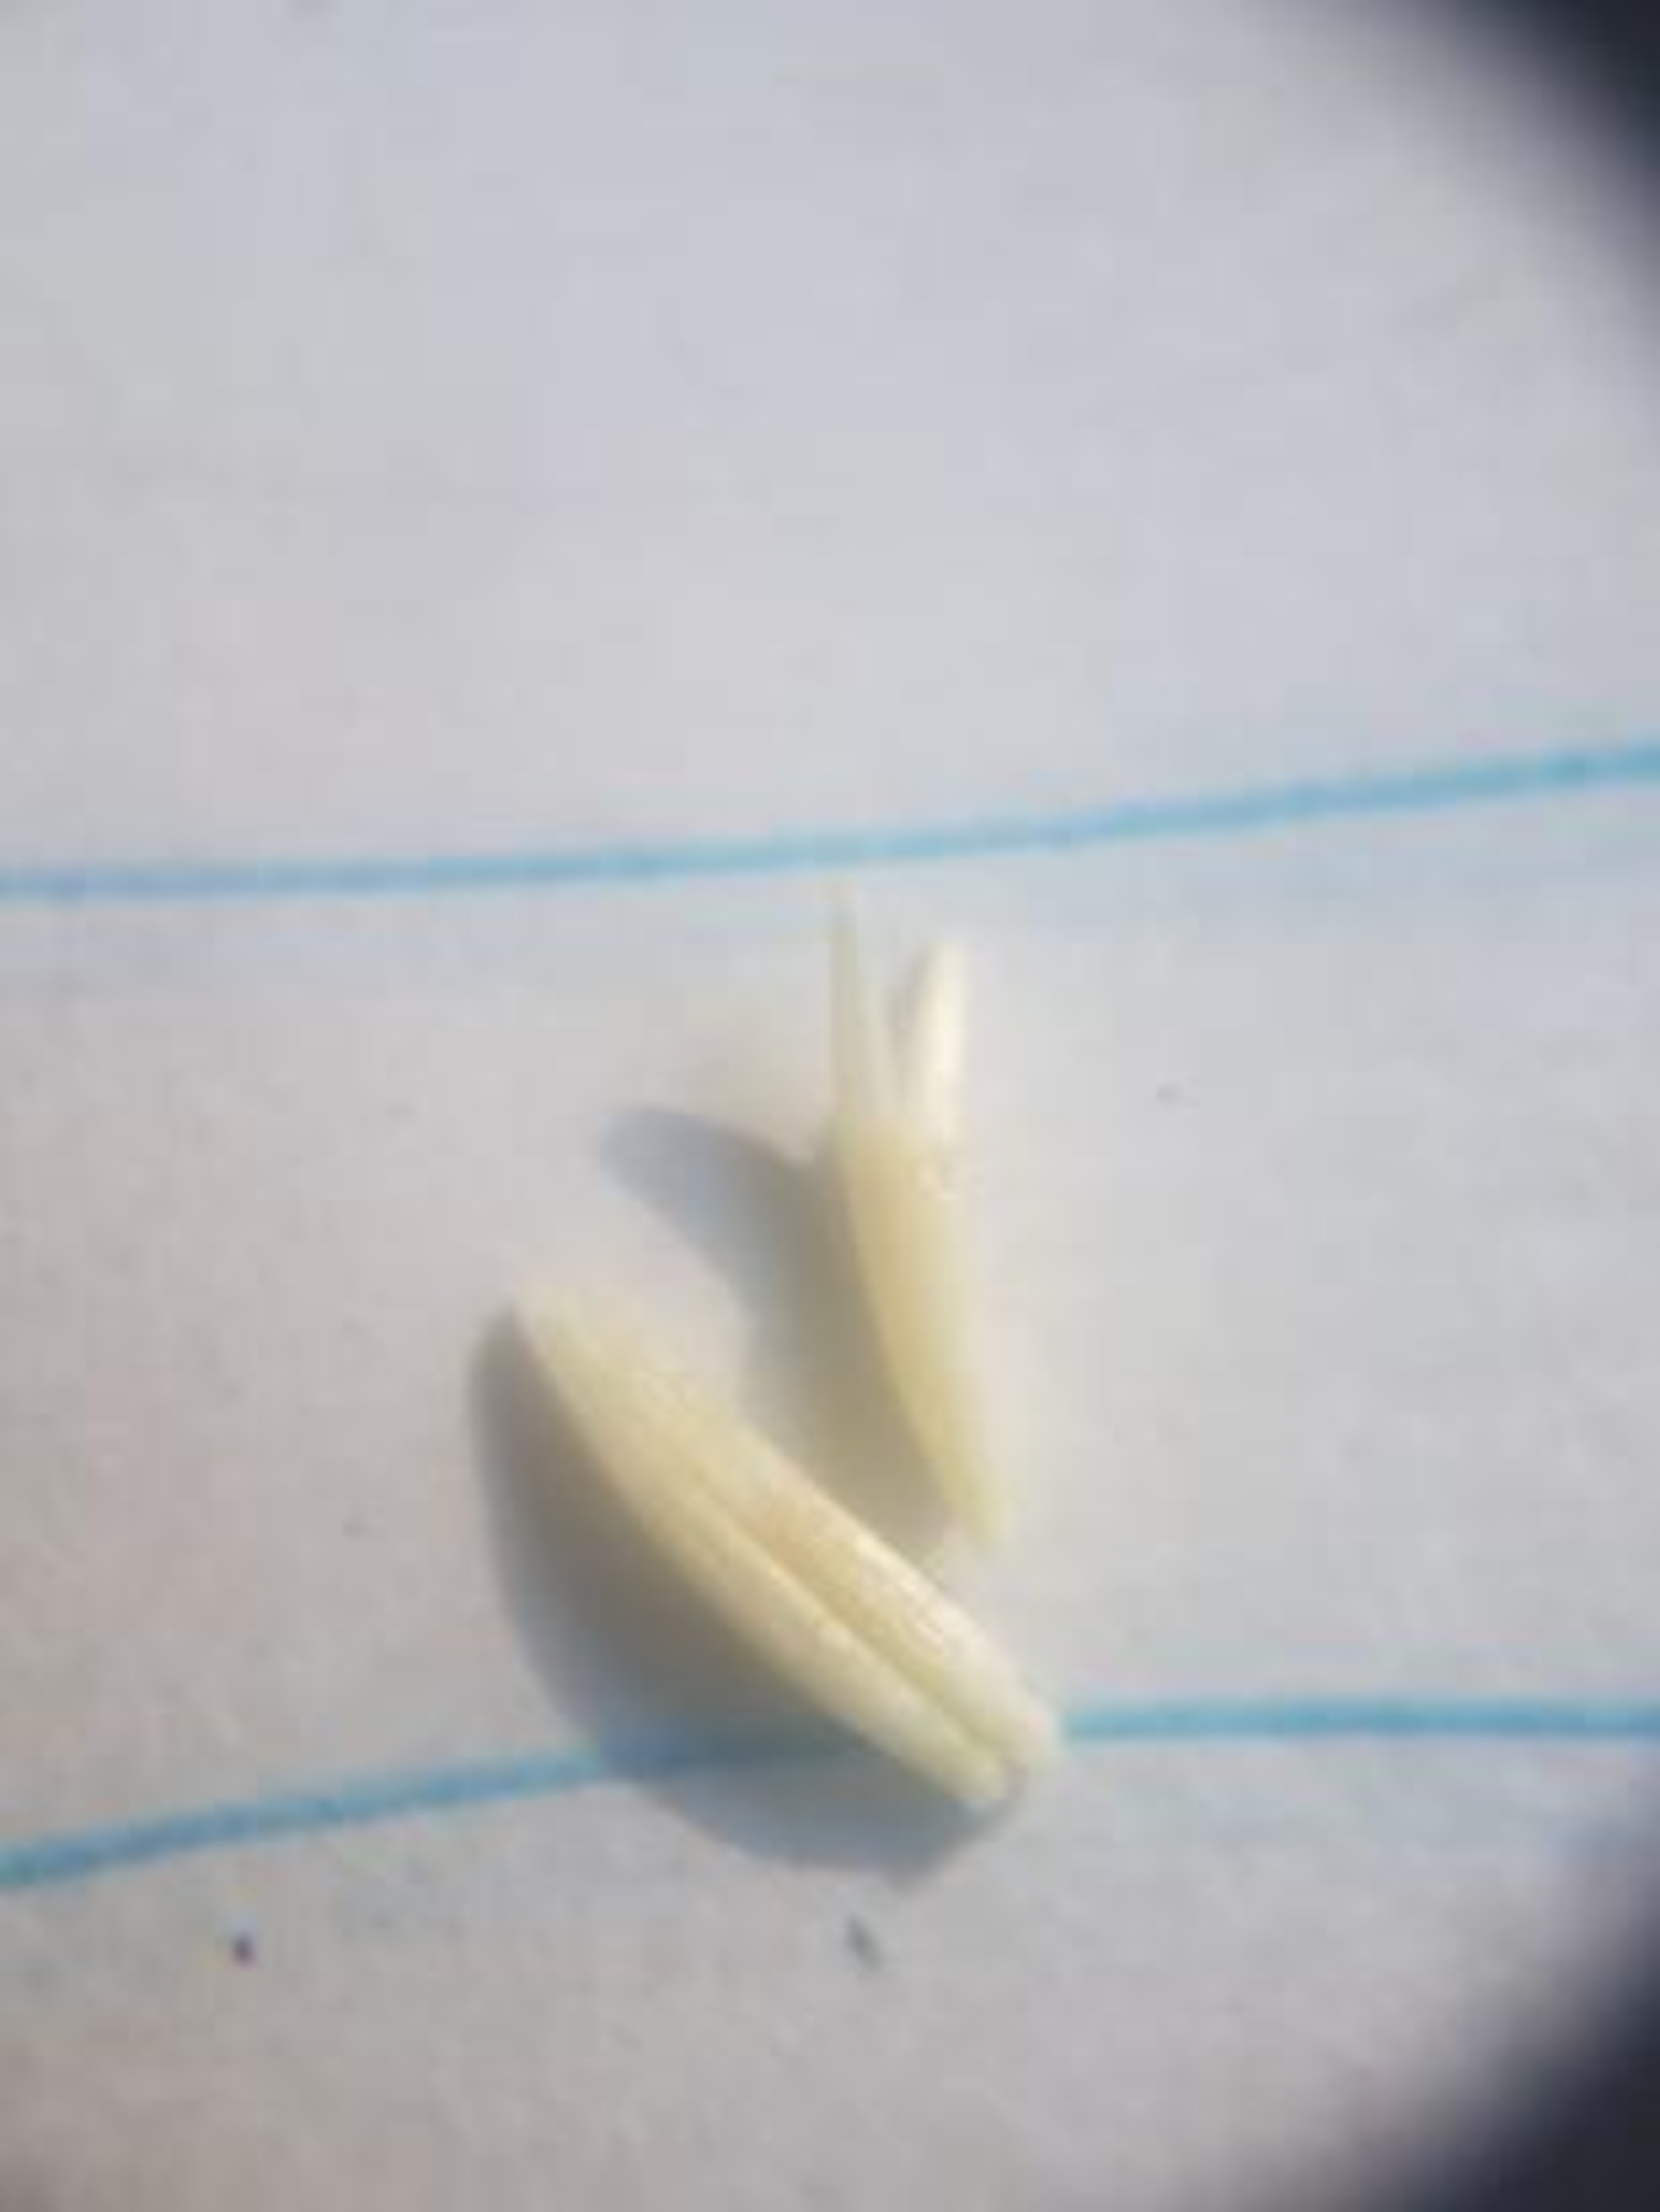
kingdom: Plantae
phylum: Tracheophyta
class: Magnoliopsida
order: Asterales
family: Asteraceae
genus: Centaurea
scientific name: Centaurea jacea
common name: Almindelig knopurt
